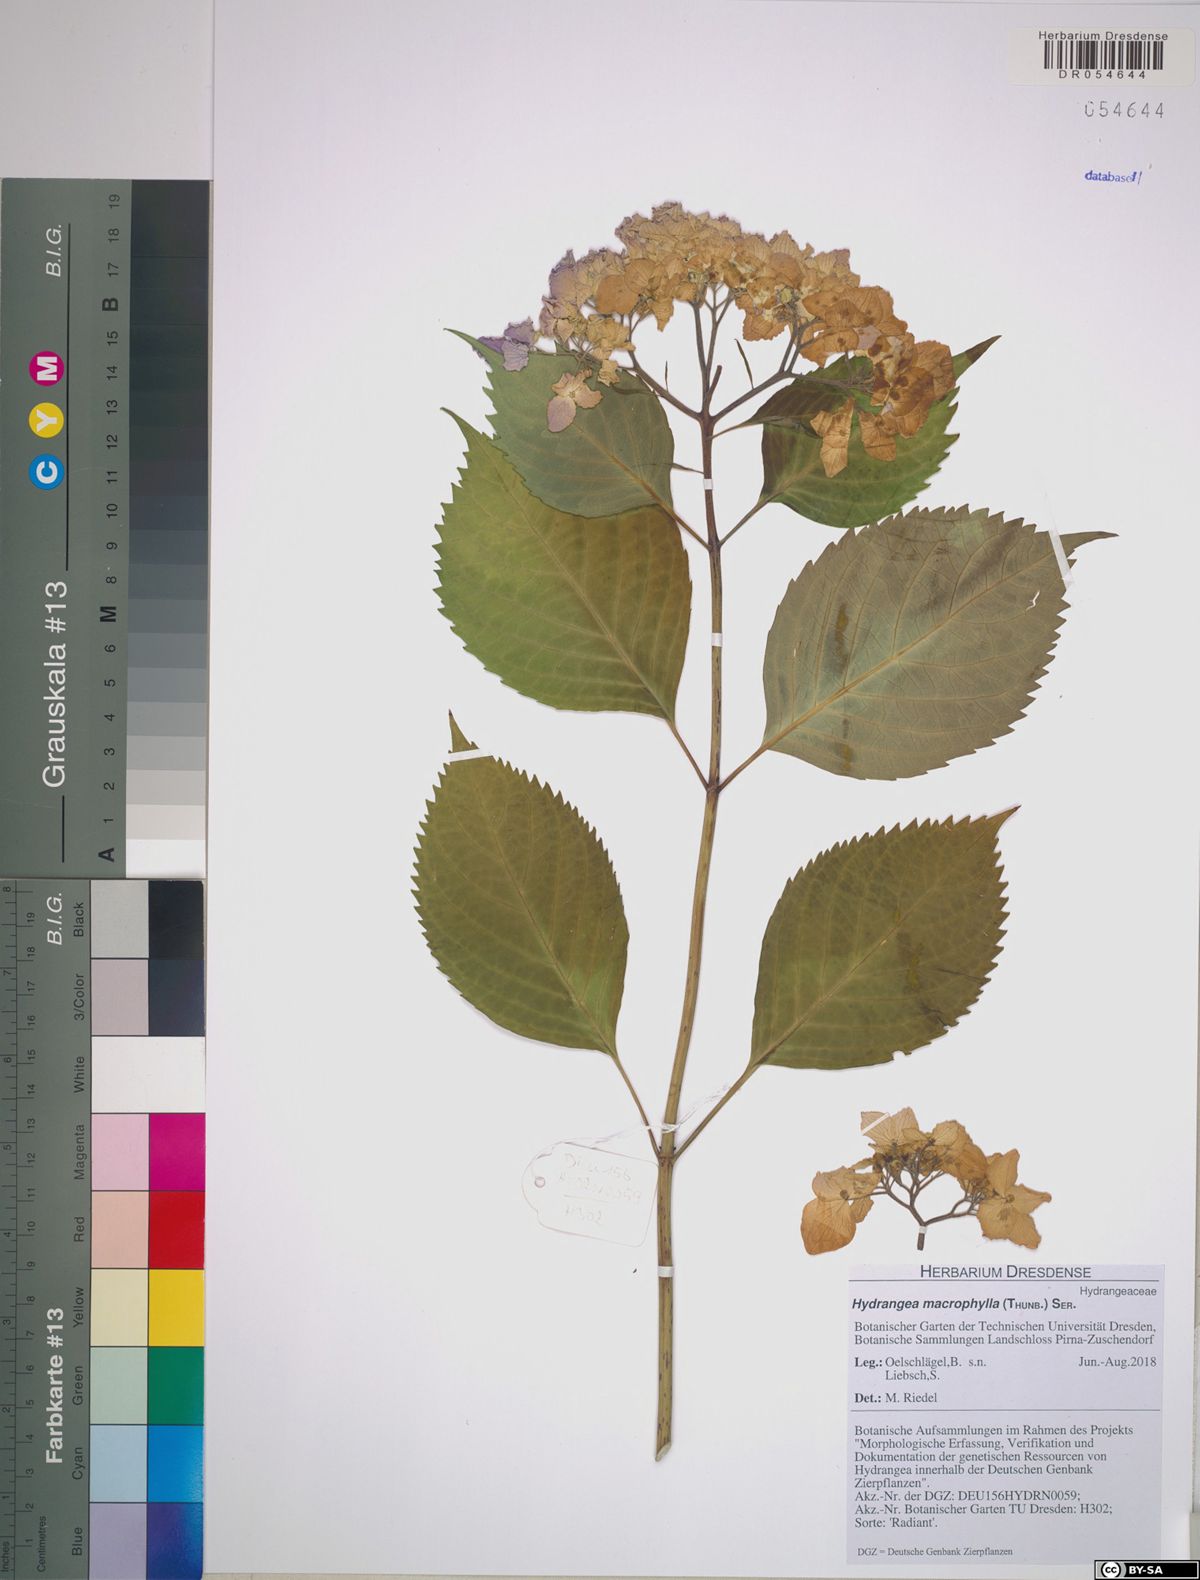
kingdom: Plantae
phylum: Tracheophyta
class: Magnoliopsida
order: Cornales
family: Hydrangeaceae
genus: Hydrangea
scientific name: Hydrangea macrophylla
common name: Hydrangea
